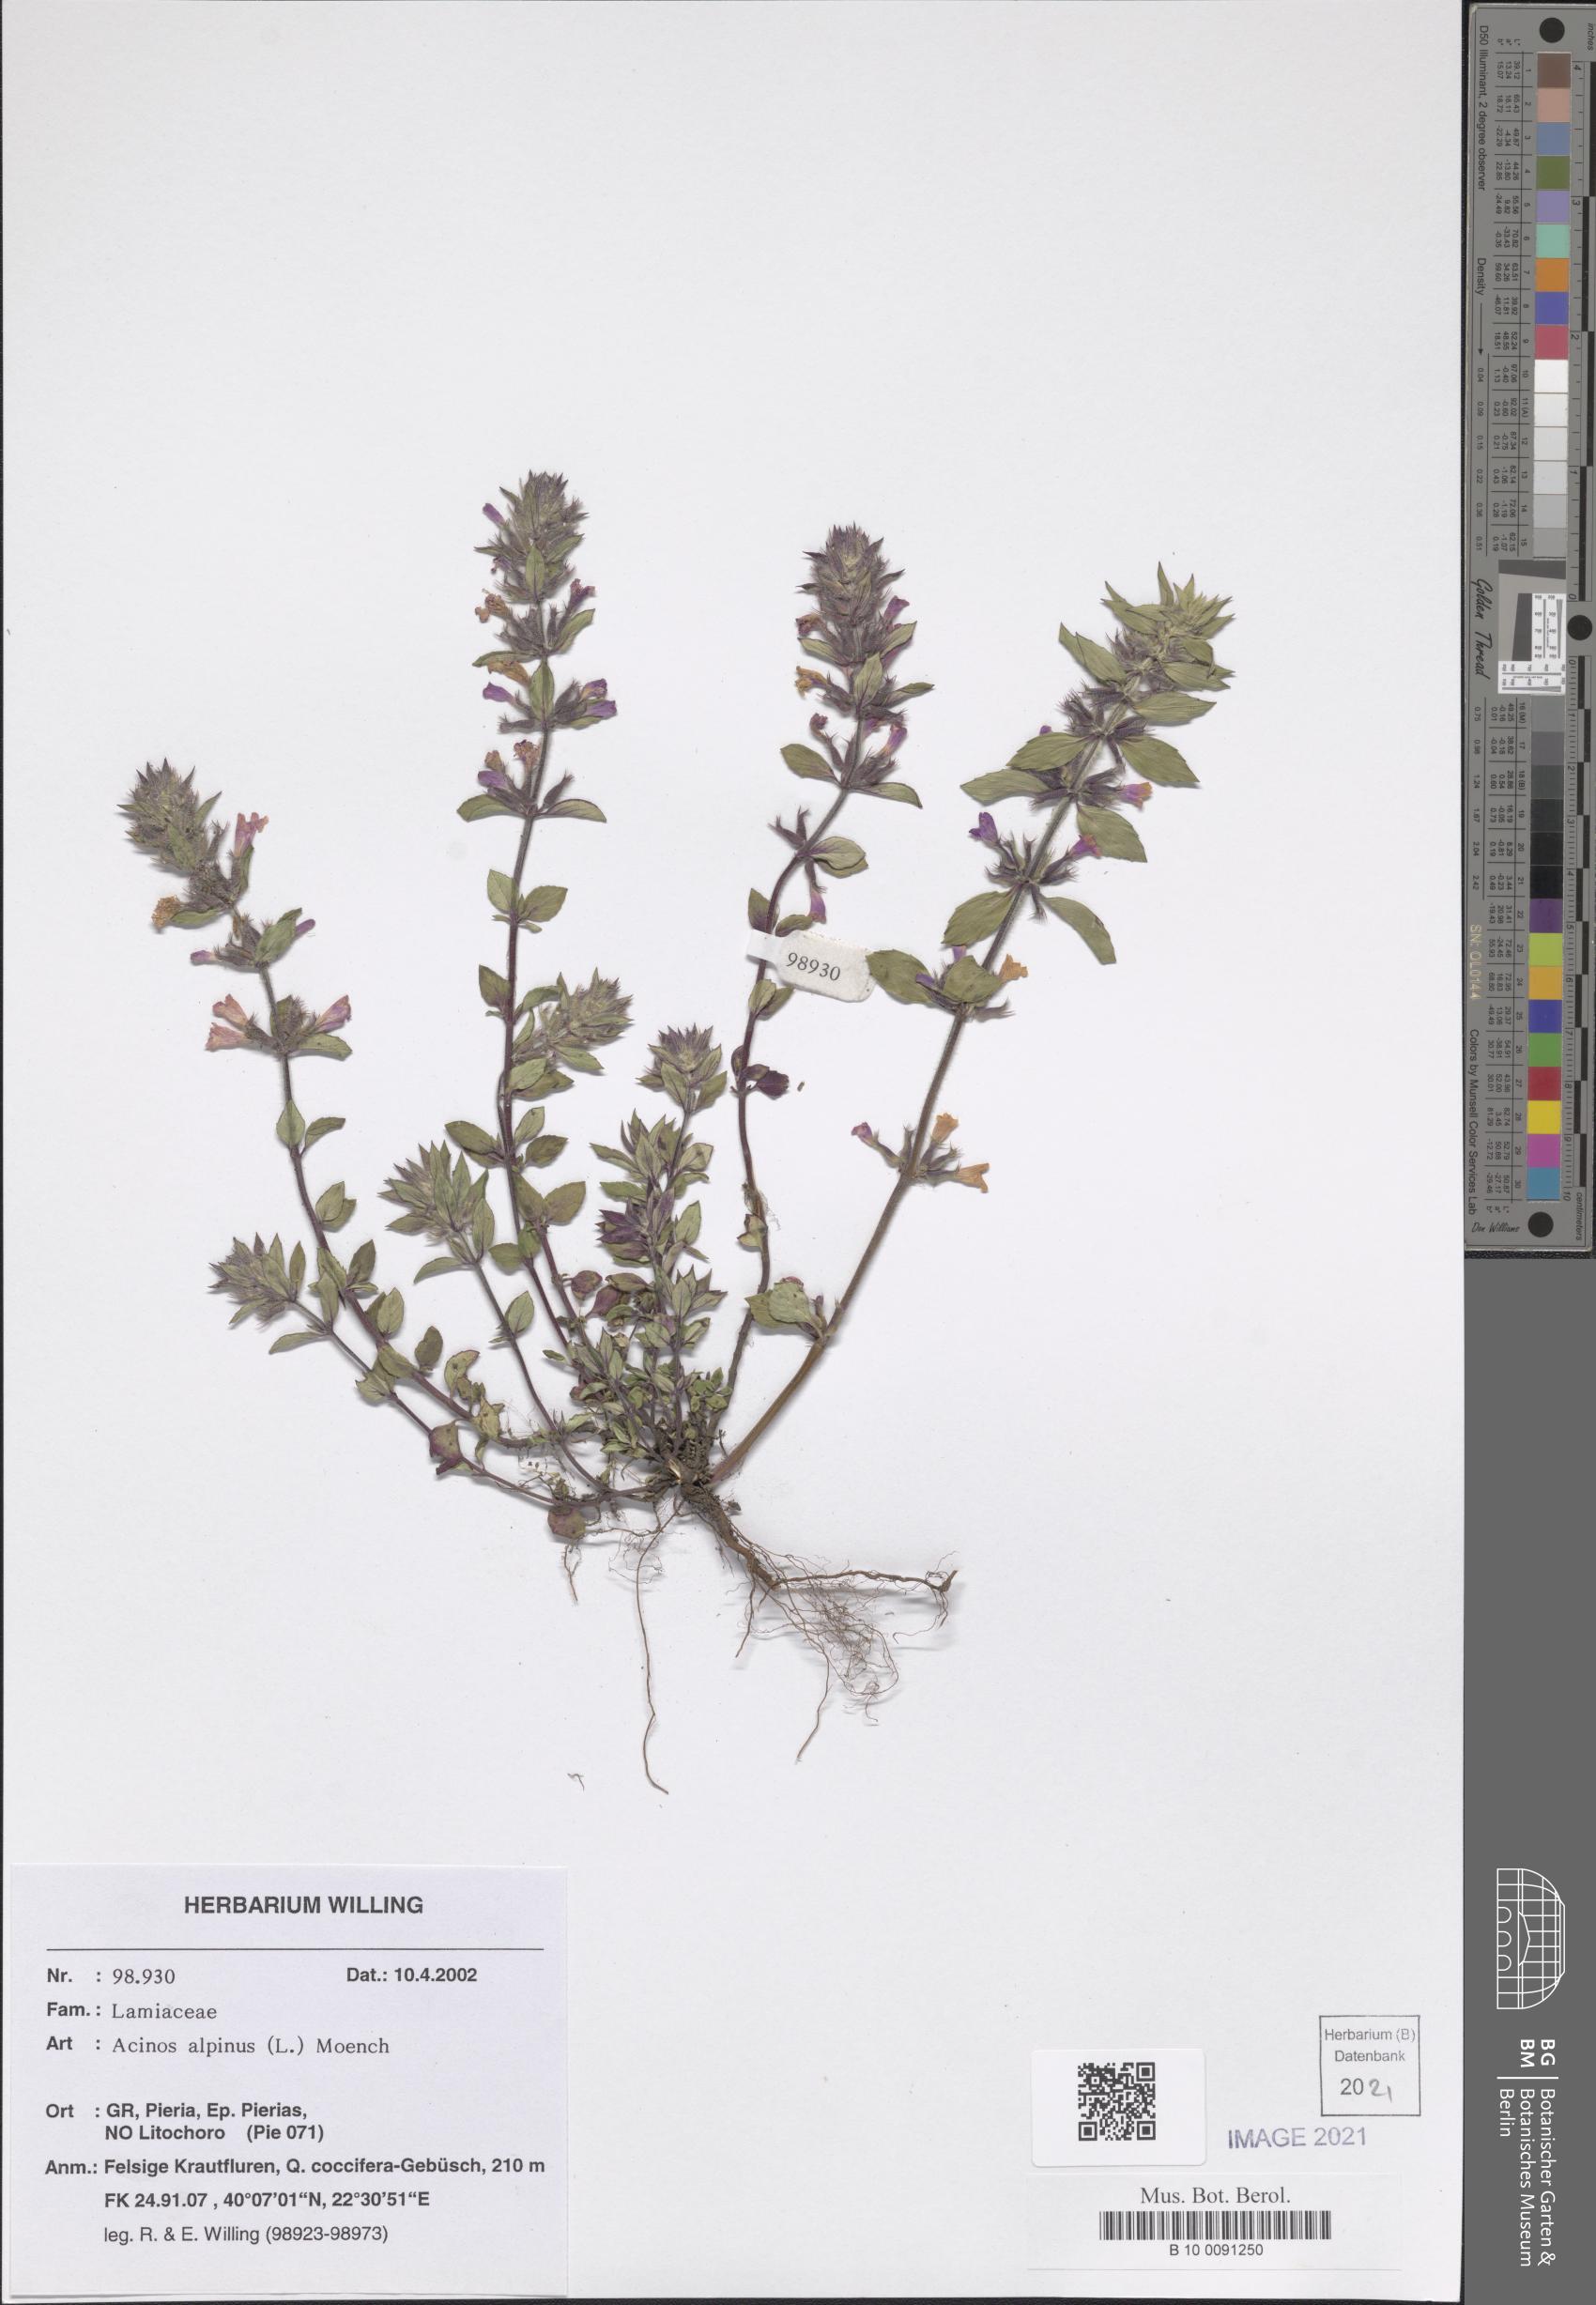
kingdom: Plantae
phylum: Tracheophyta
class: Magnoliopsida
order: Lamiales
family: Lamiaceae
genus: Clinopodium
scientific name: Clinopodium alpinum
